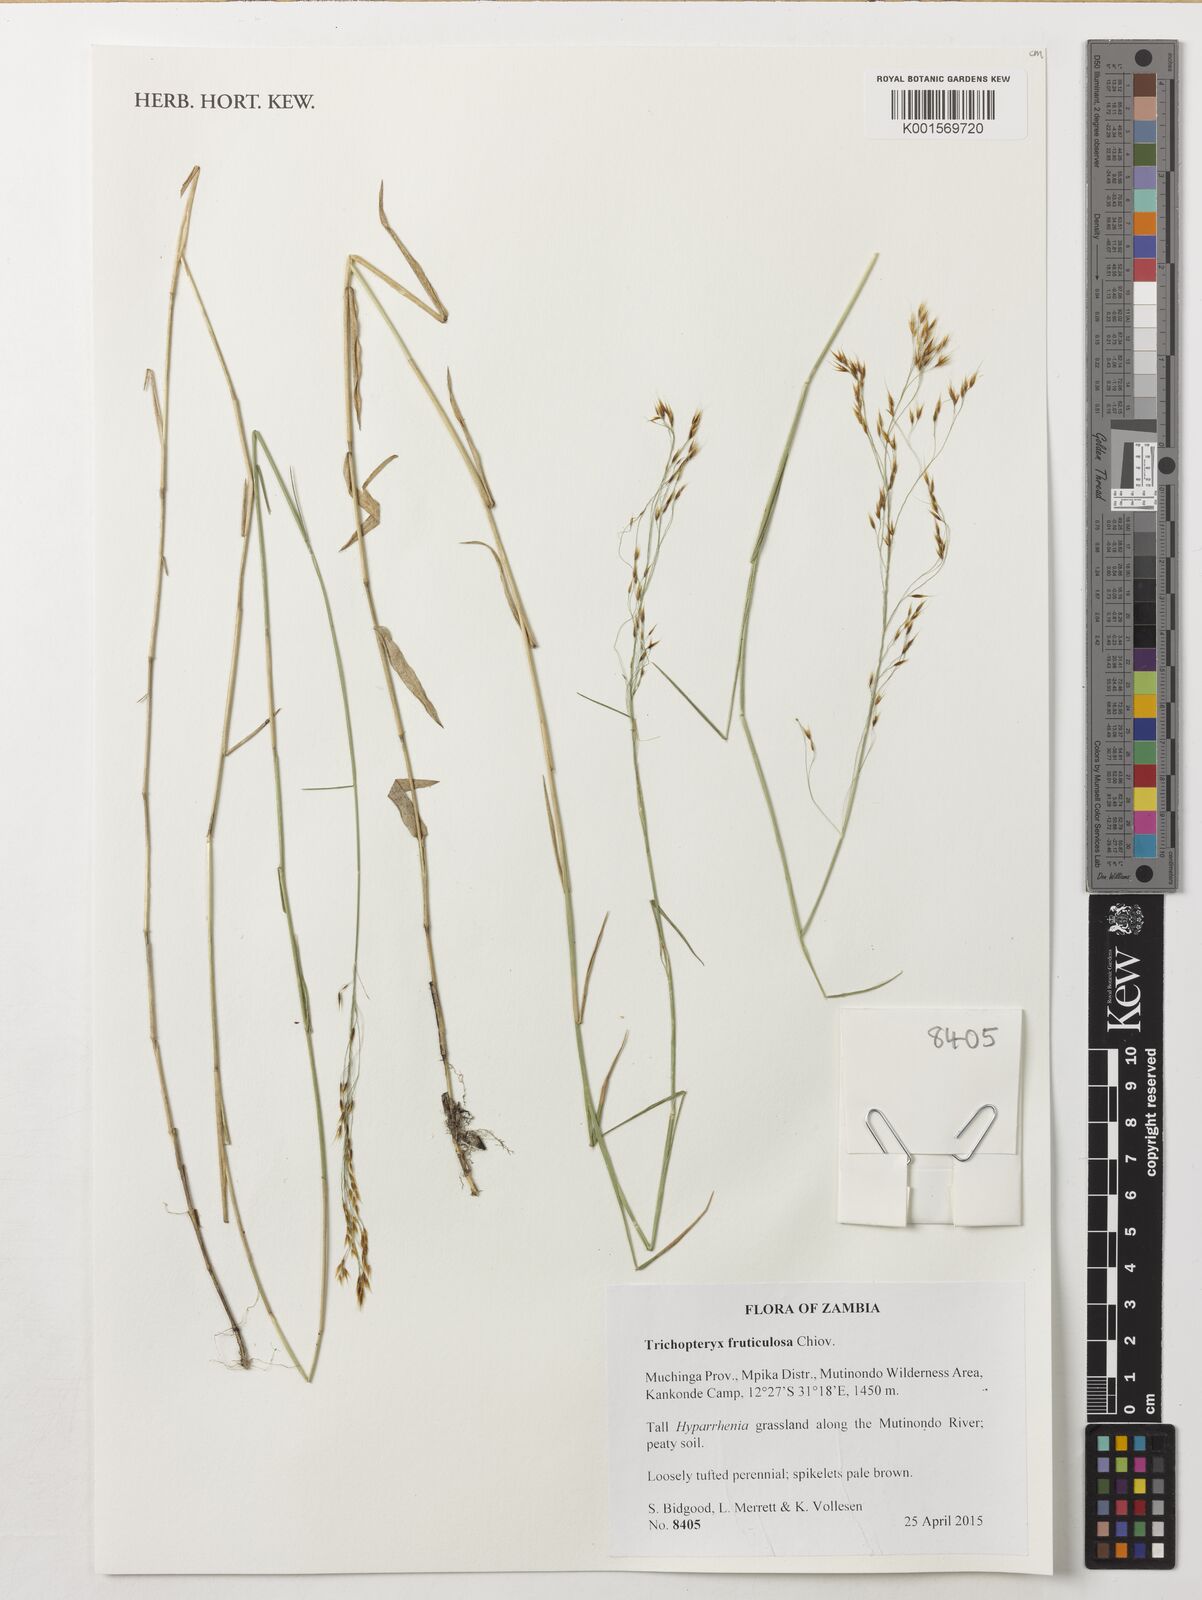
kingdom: Plantae
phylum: Tracheophyta
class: Liliopsida
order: Poales
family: Poaceae
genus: Trichopteryx
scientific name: Trichopteryx fruticulosa
